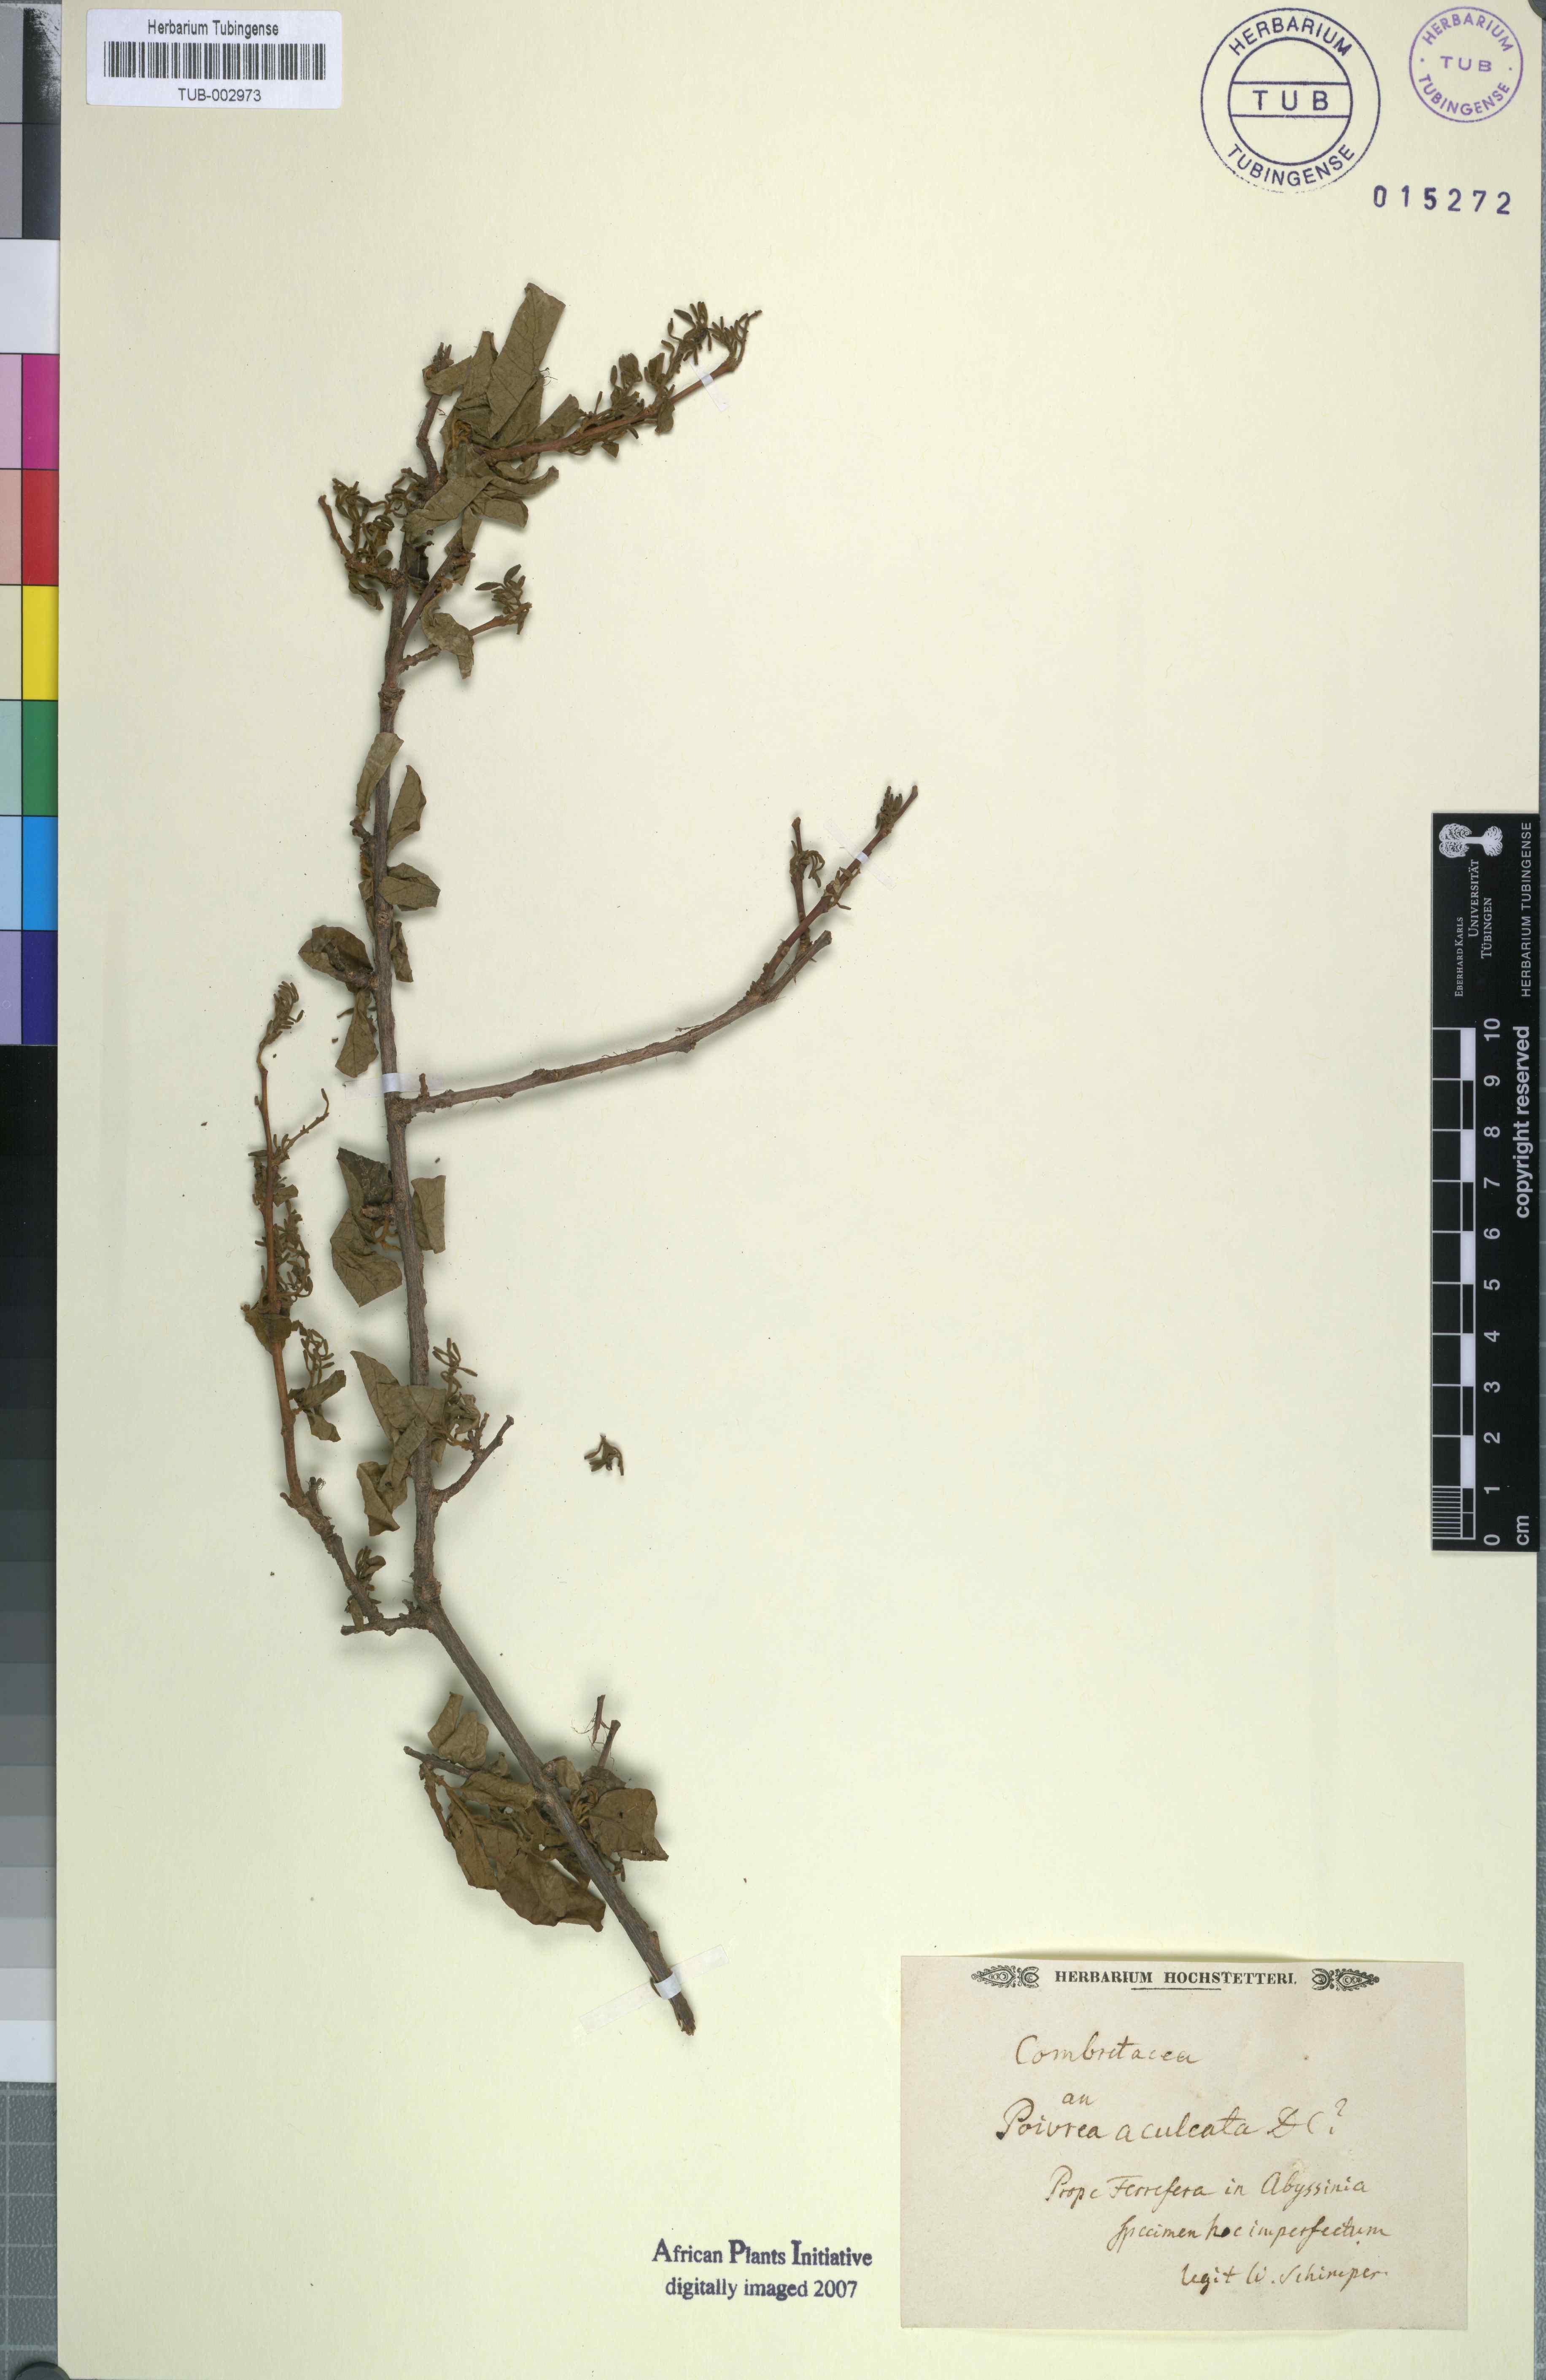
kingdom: Plantae
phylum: Tracheophyta
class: Magnoliopsida
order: Myrtales
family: Combretaceae
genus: Combretum
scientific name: Combretum aculeatum
